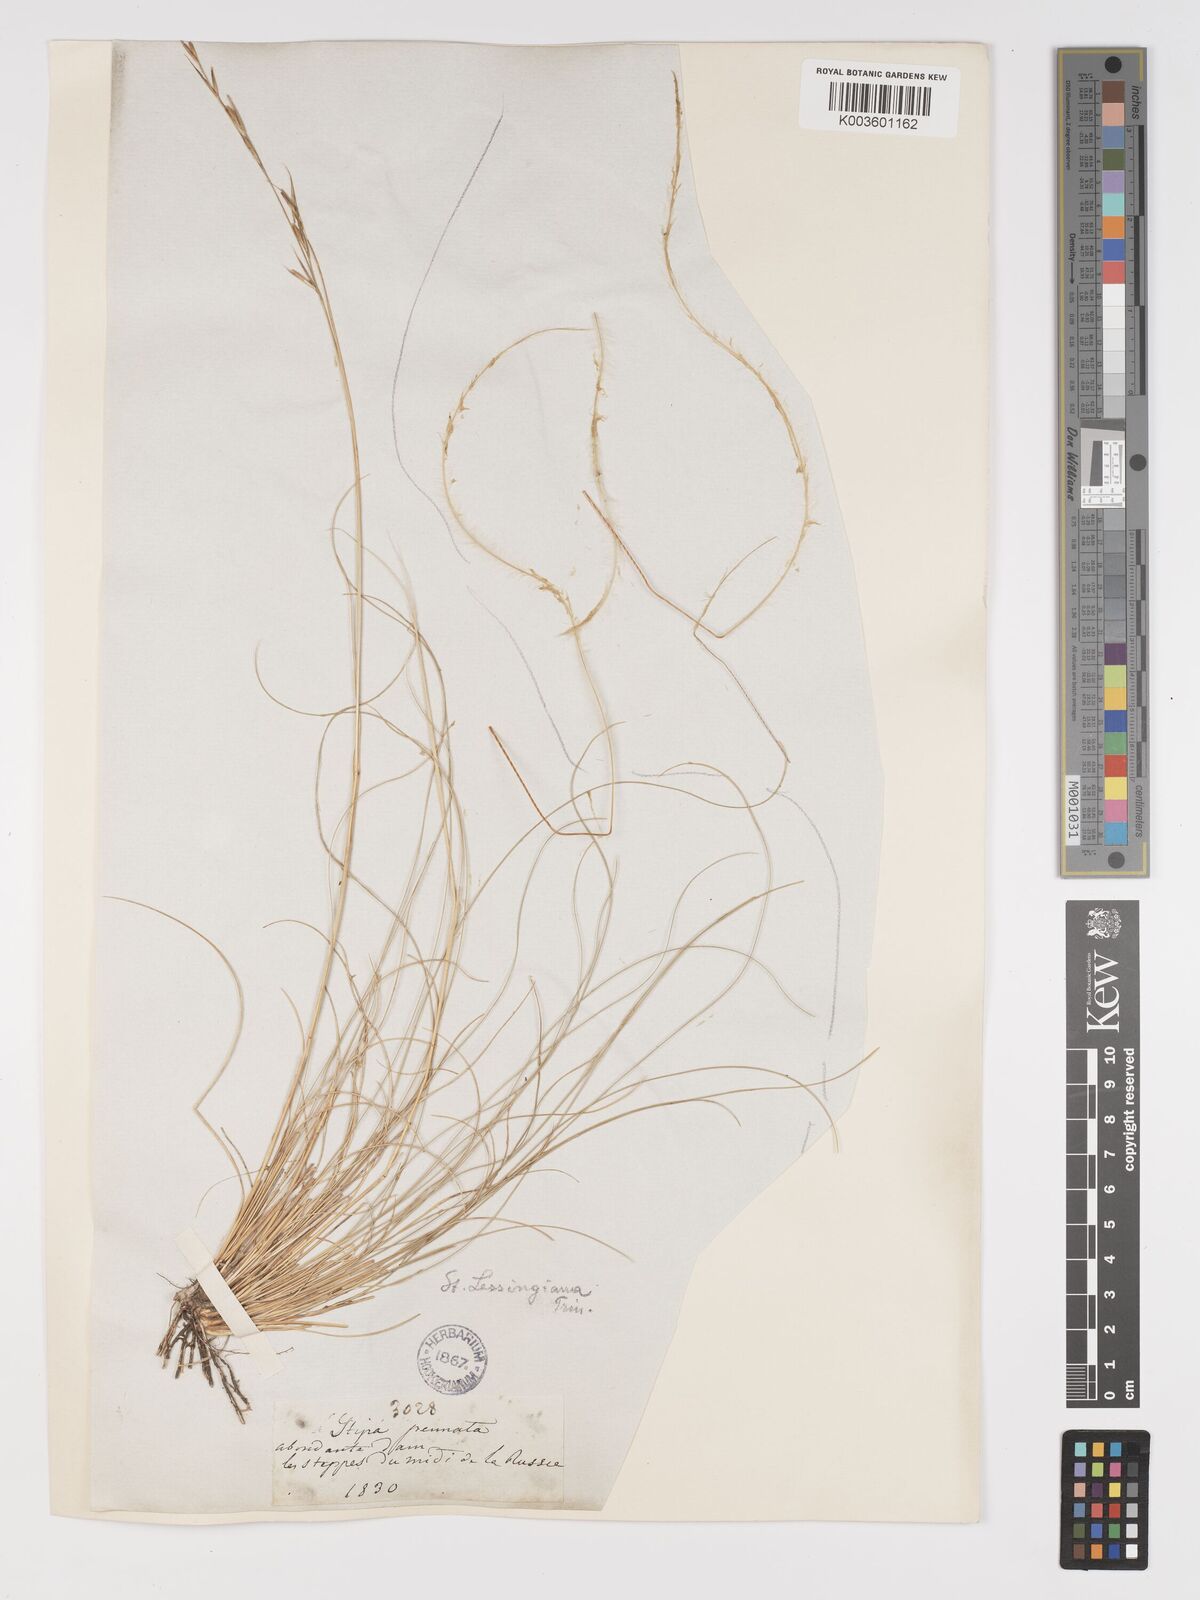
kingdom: Plantae
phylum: Tracheophyta
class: Liliopsida
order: Poales
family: Poaceae
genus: Stipa
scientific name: Stipa lessingiana
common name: Needle grass
